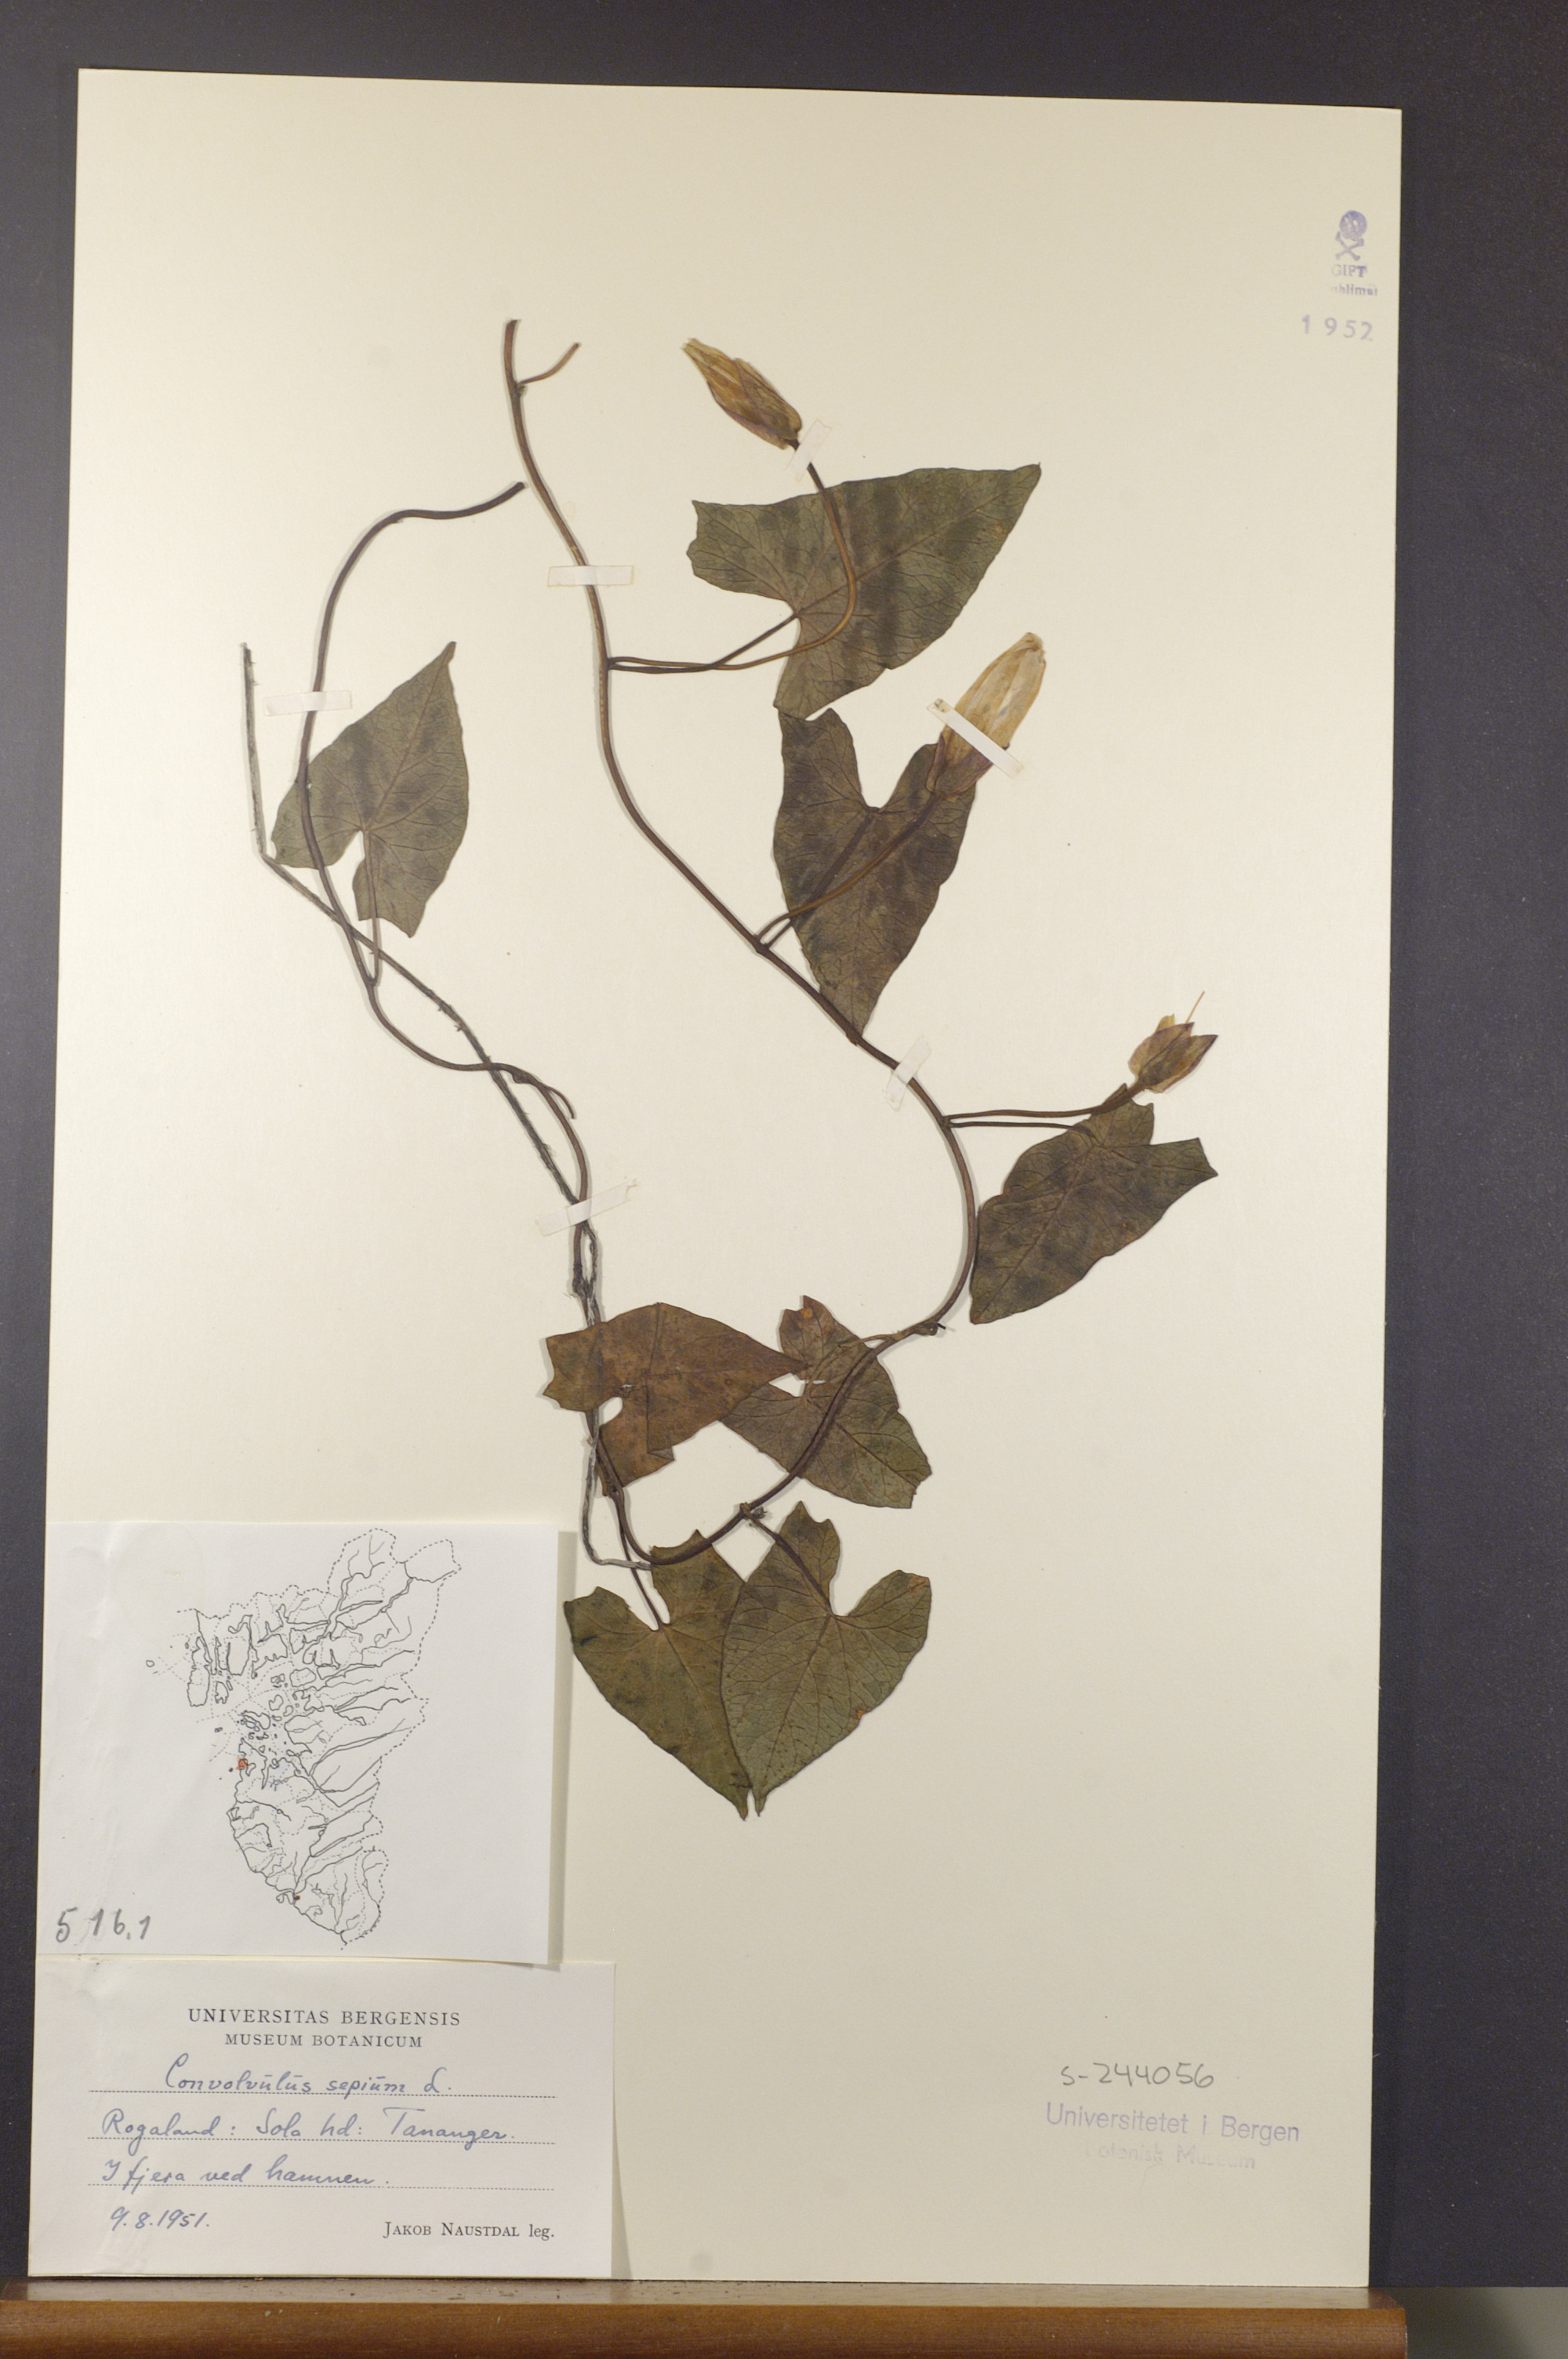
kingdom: Plantae
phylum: Tracheophyta
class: Magnoliopsida
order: Solanales
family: Convolvulaceae
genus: Calystegia
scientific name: Calystegia sepium
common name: Hedge bindweed
